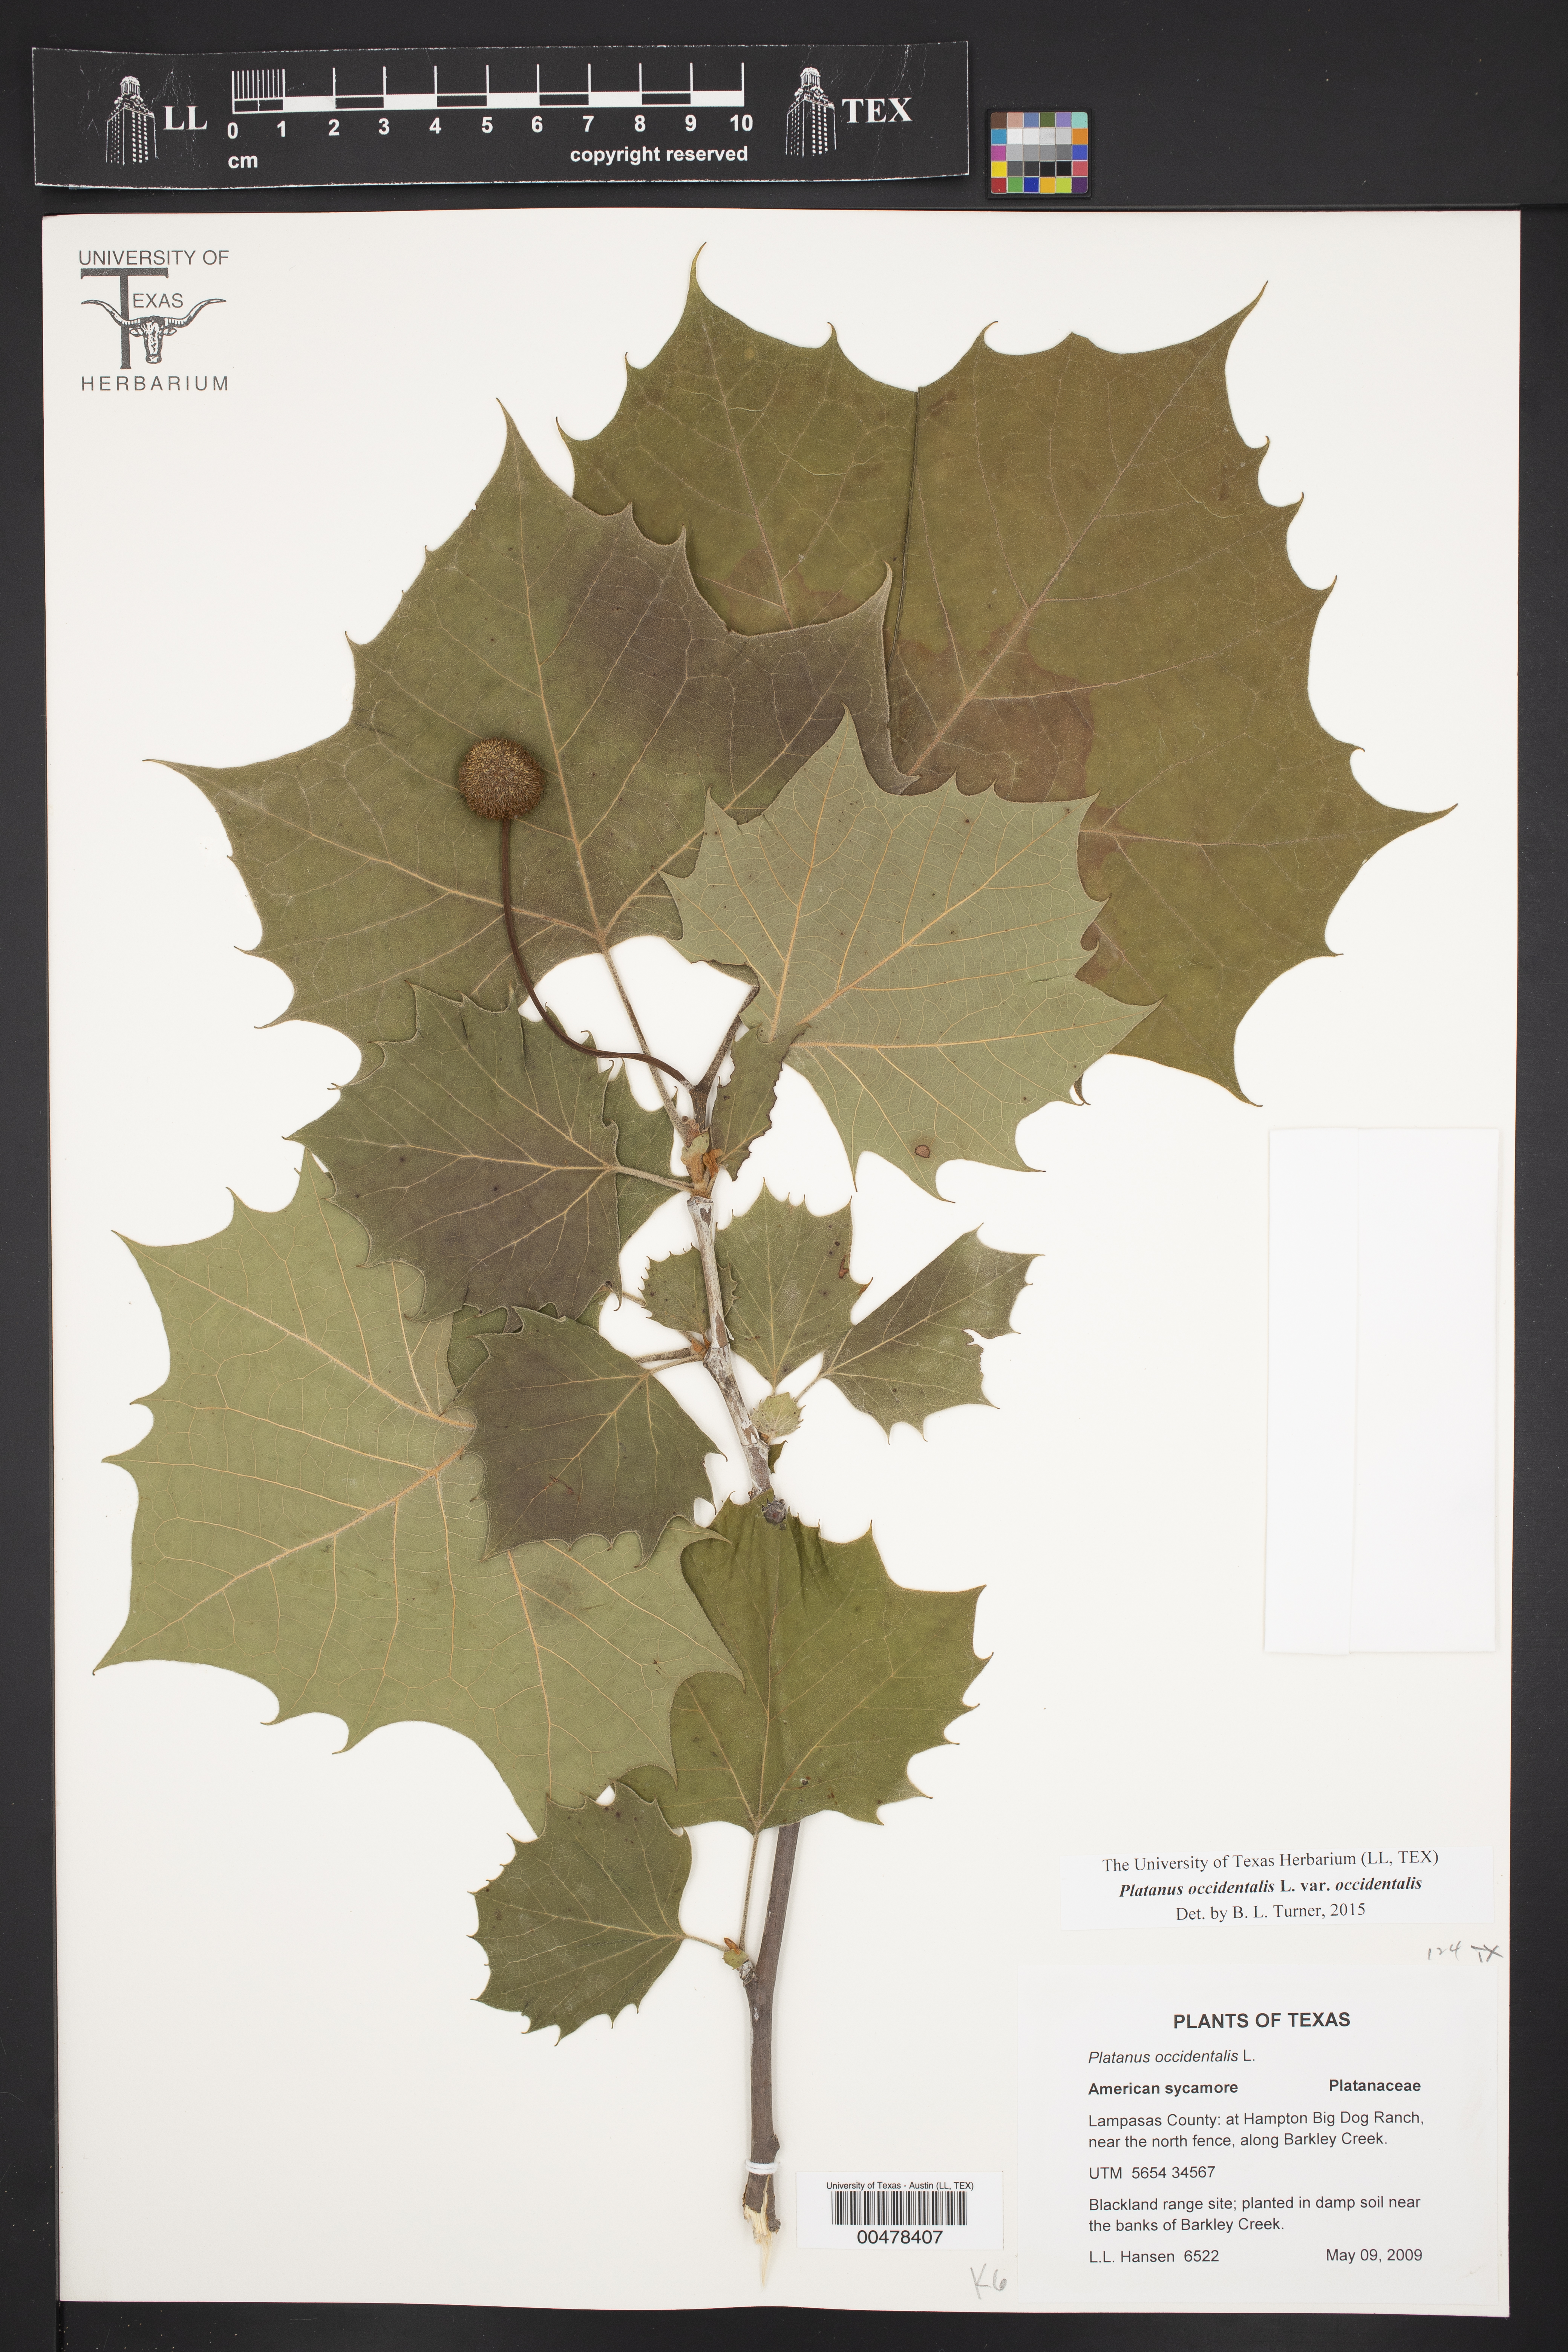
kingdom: Plantae
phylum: Tracheophyta
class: Magnoliopsida
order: Proteales
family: Platanaceae
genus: Platanus
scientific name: Platanus occidentalis
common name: American sycamore
